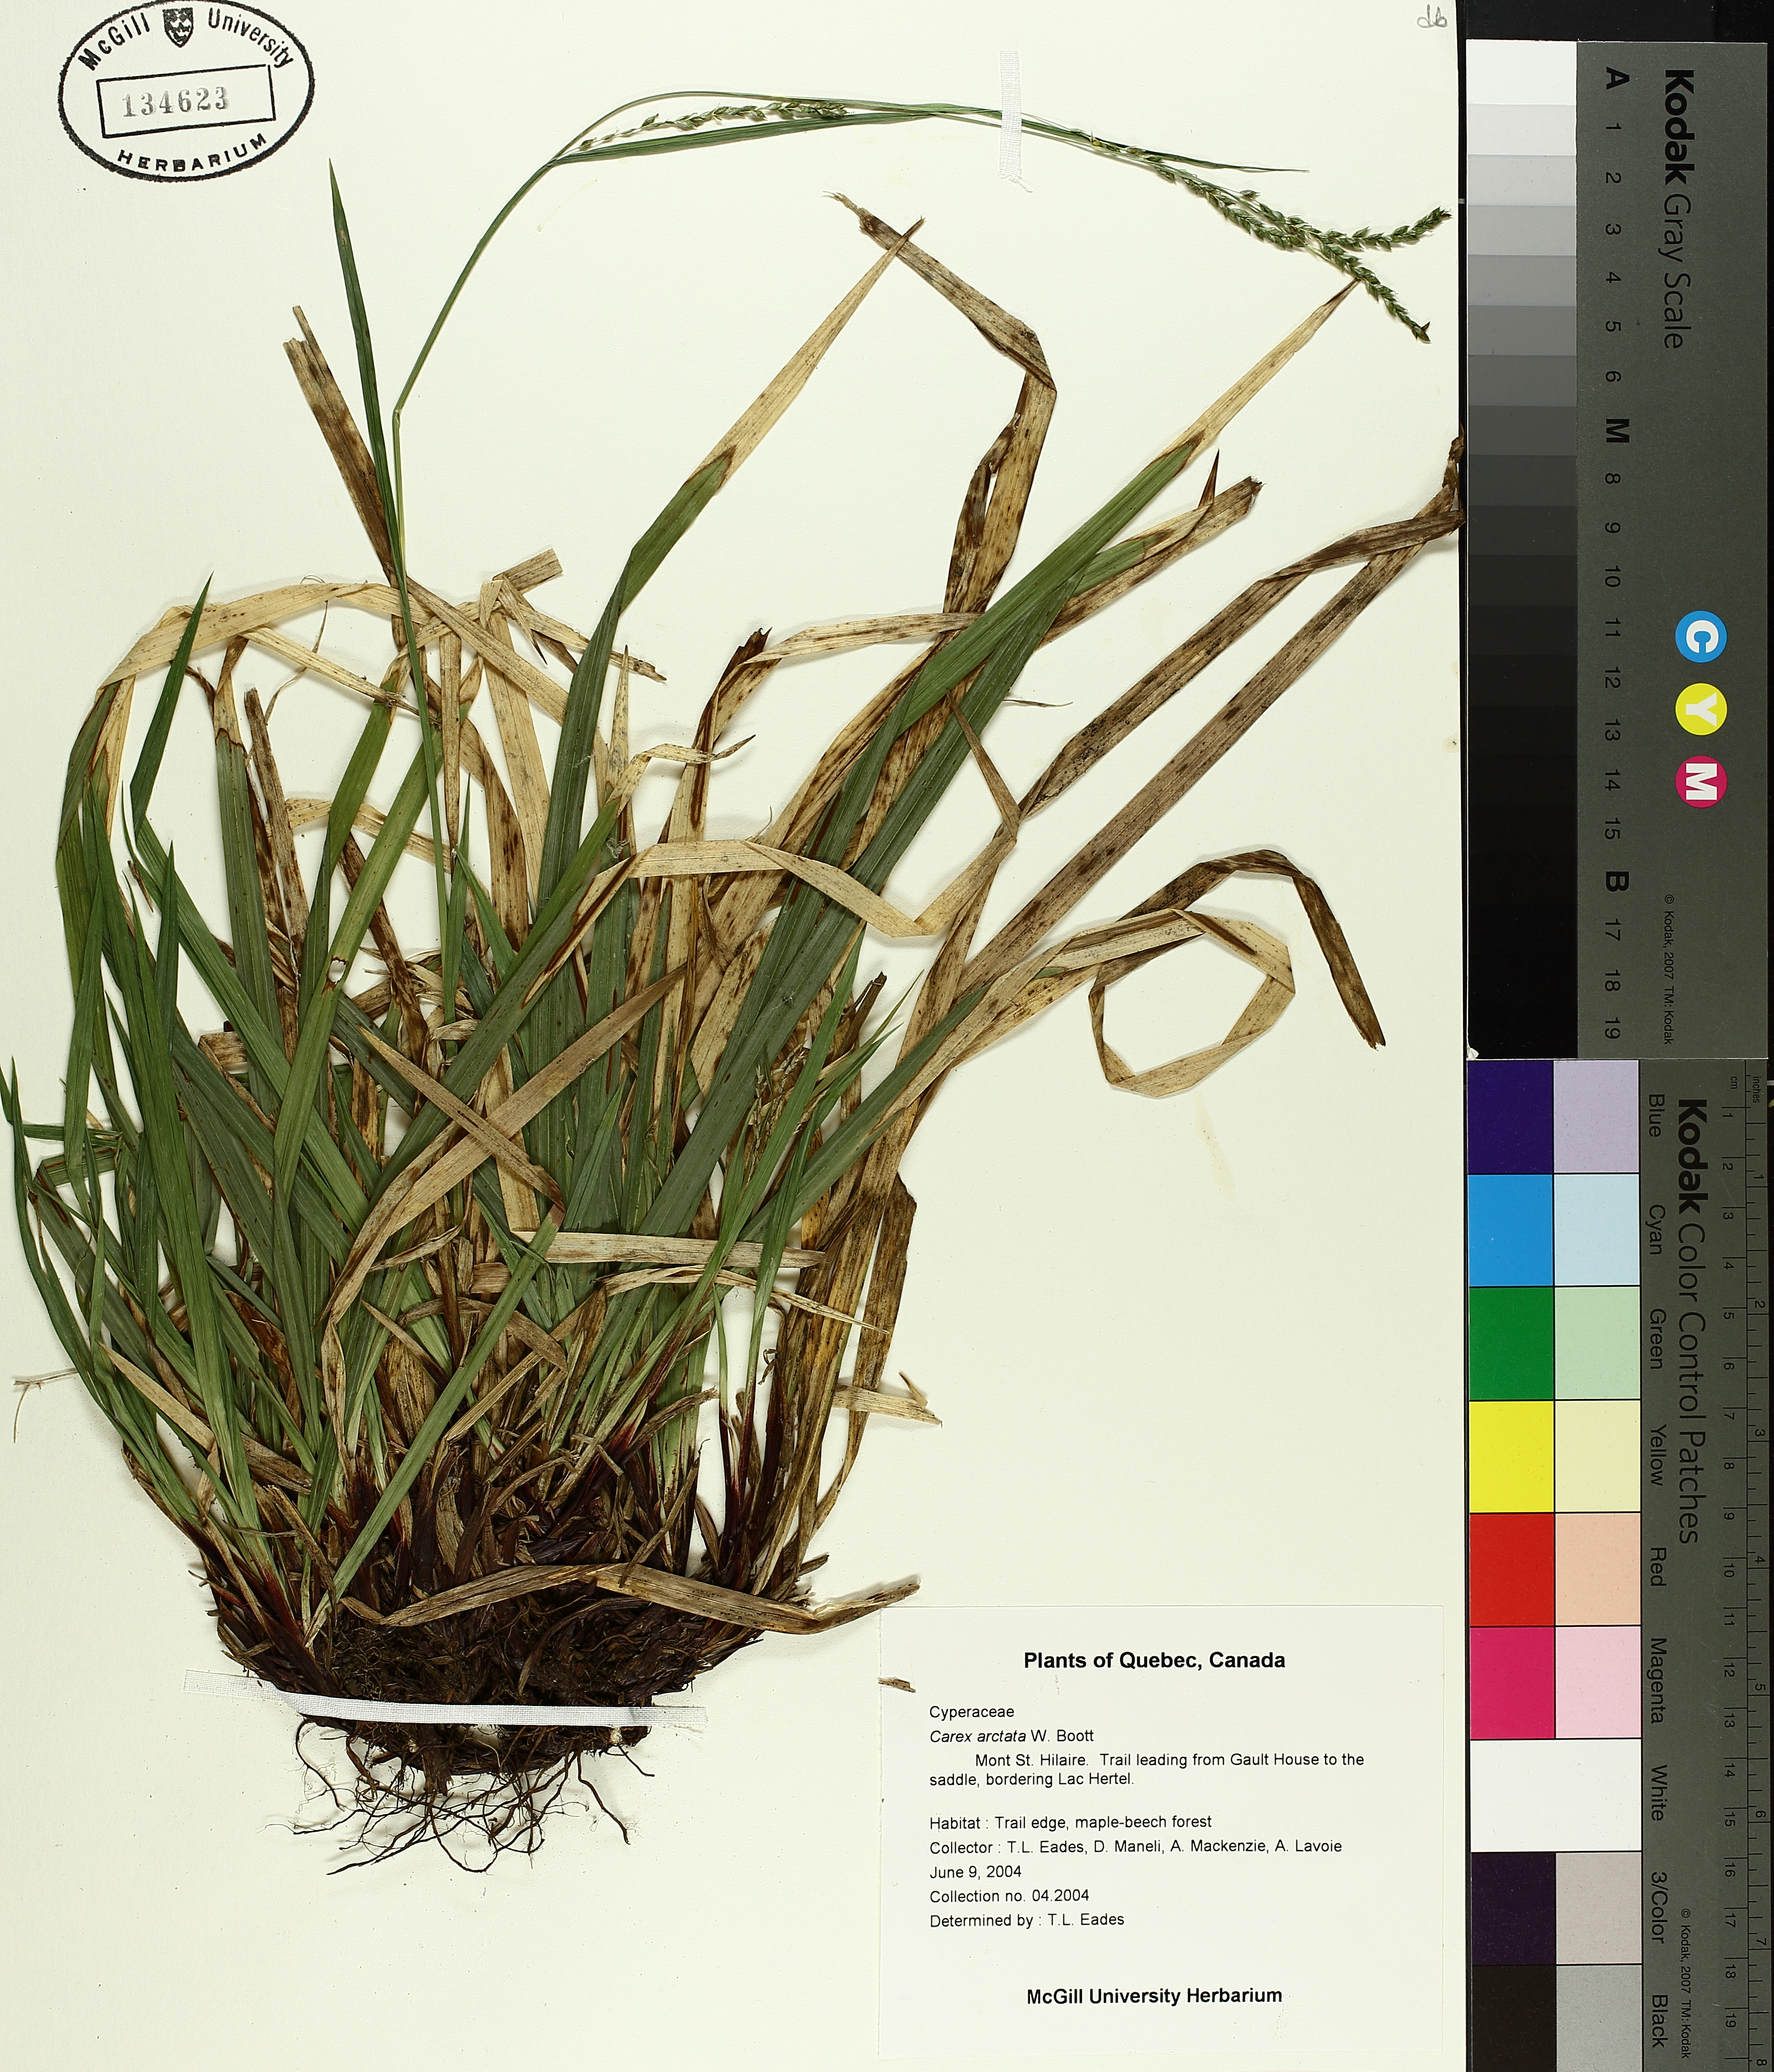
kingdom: Plantae
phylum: Tracheophyta
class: Liliopsida
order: Poales
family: Cyperaceae
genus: Carex
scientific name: Carex arctata
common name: Black sedge
